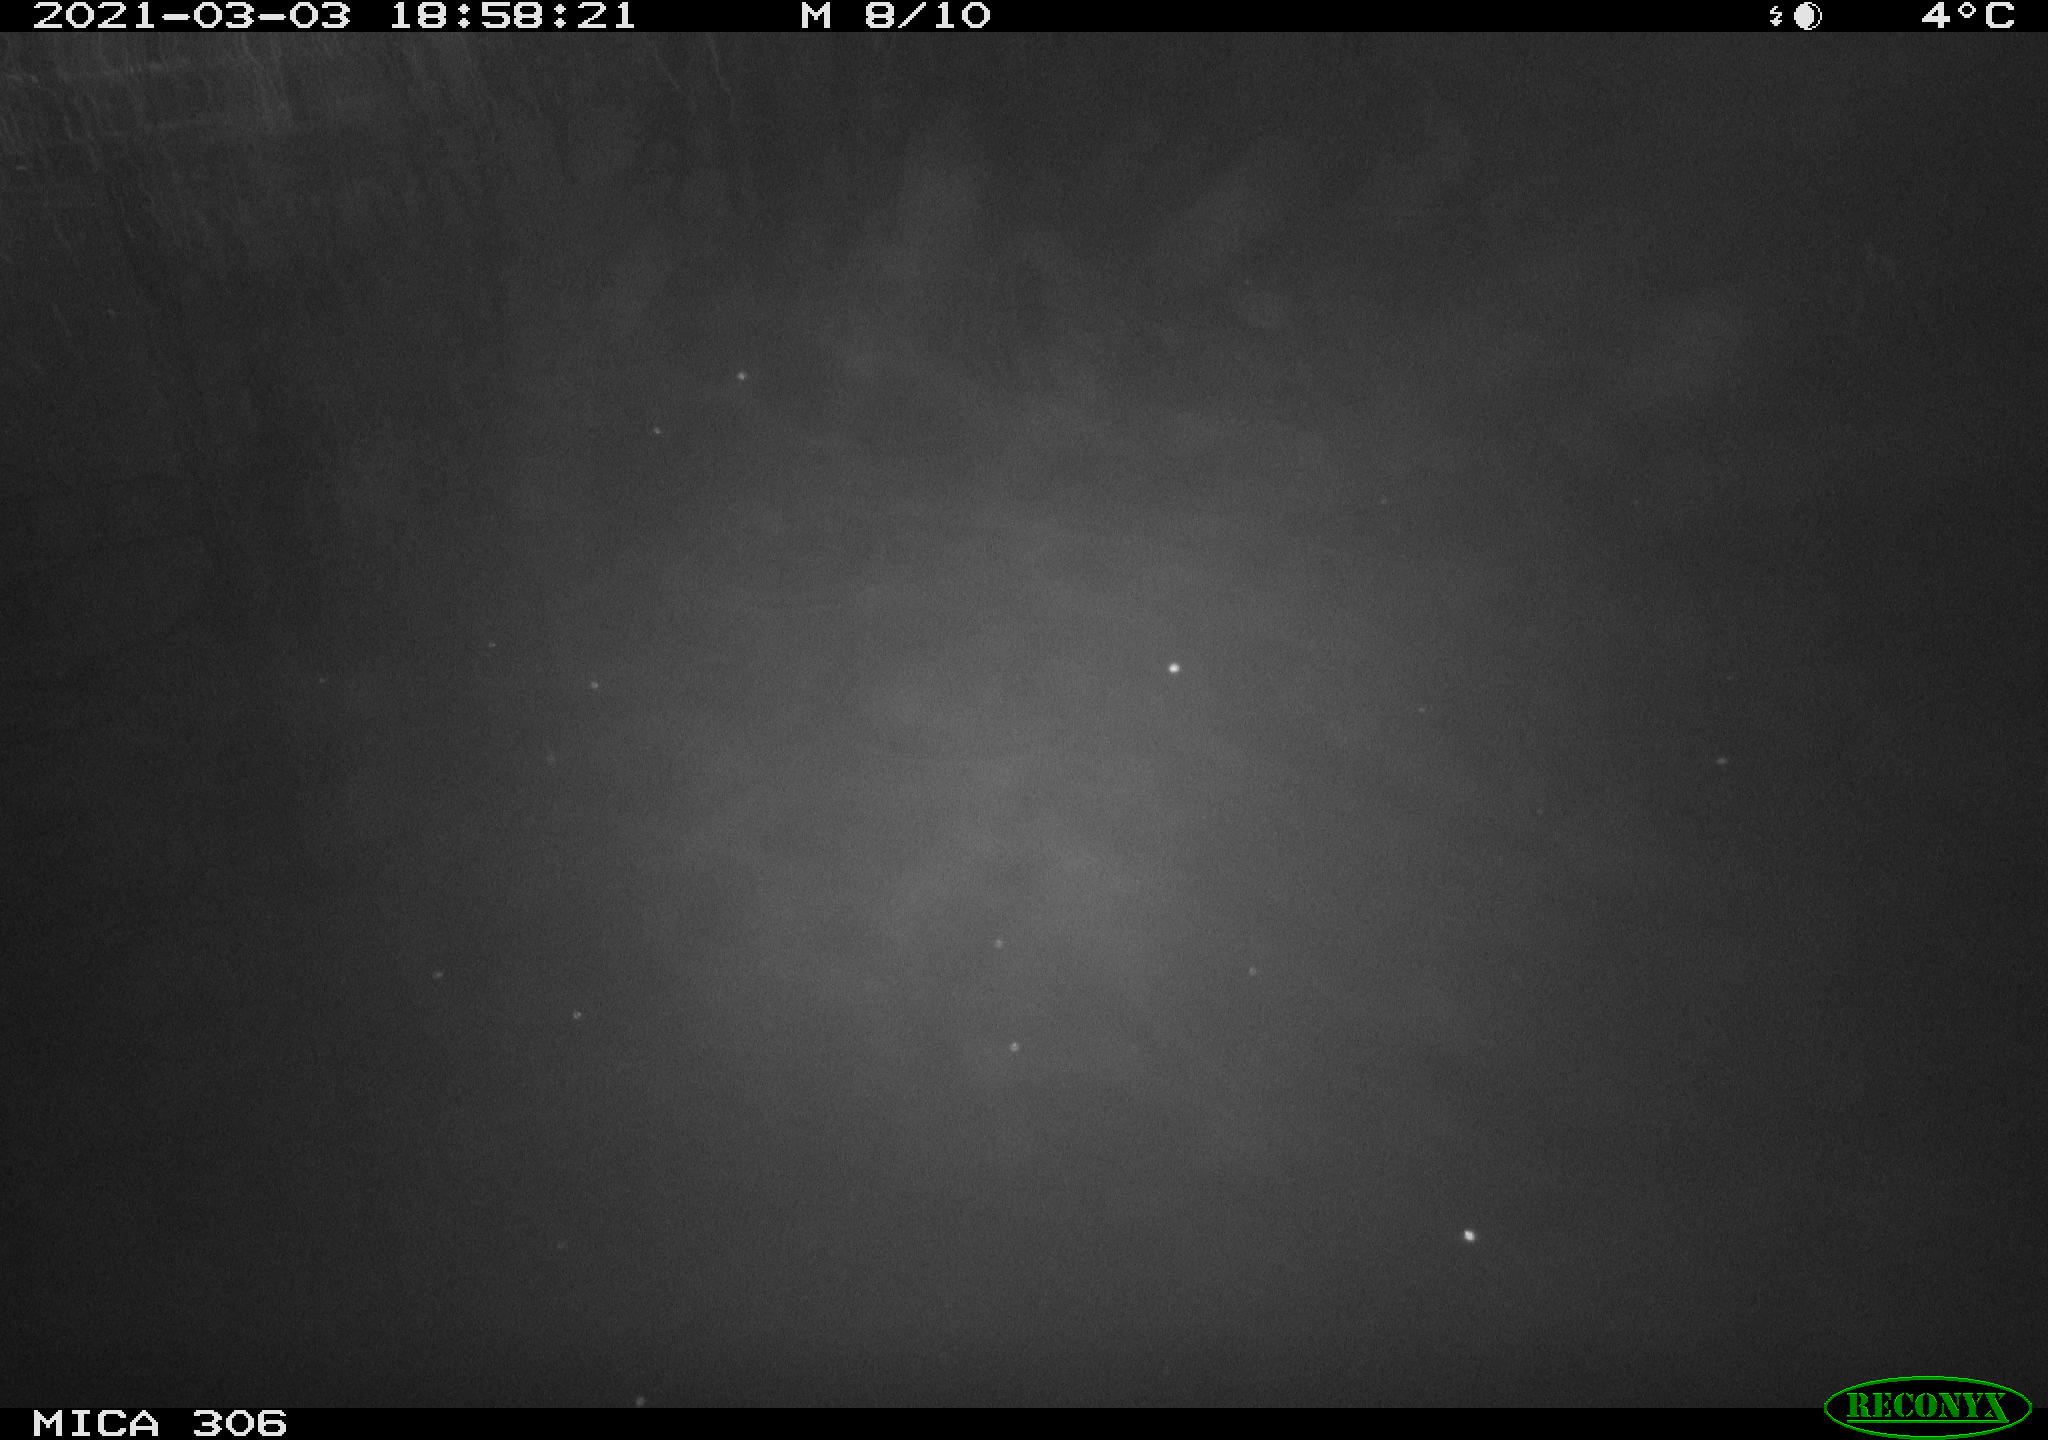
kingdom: Animalia
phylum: Chordata
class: Aves
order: Anseriformes
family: Anatidae
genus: Anas
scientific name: Anas
